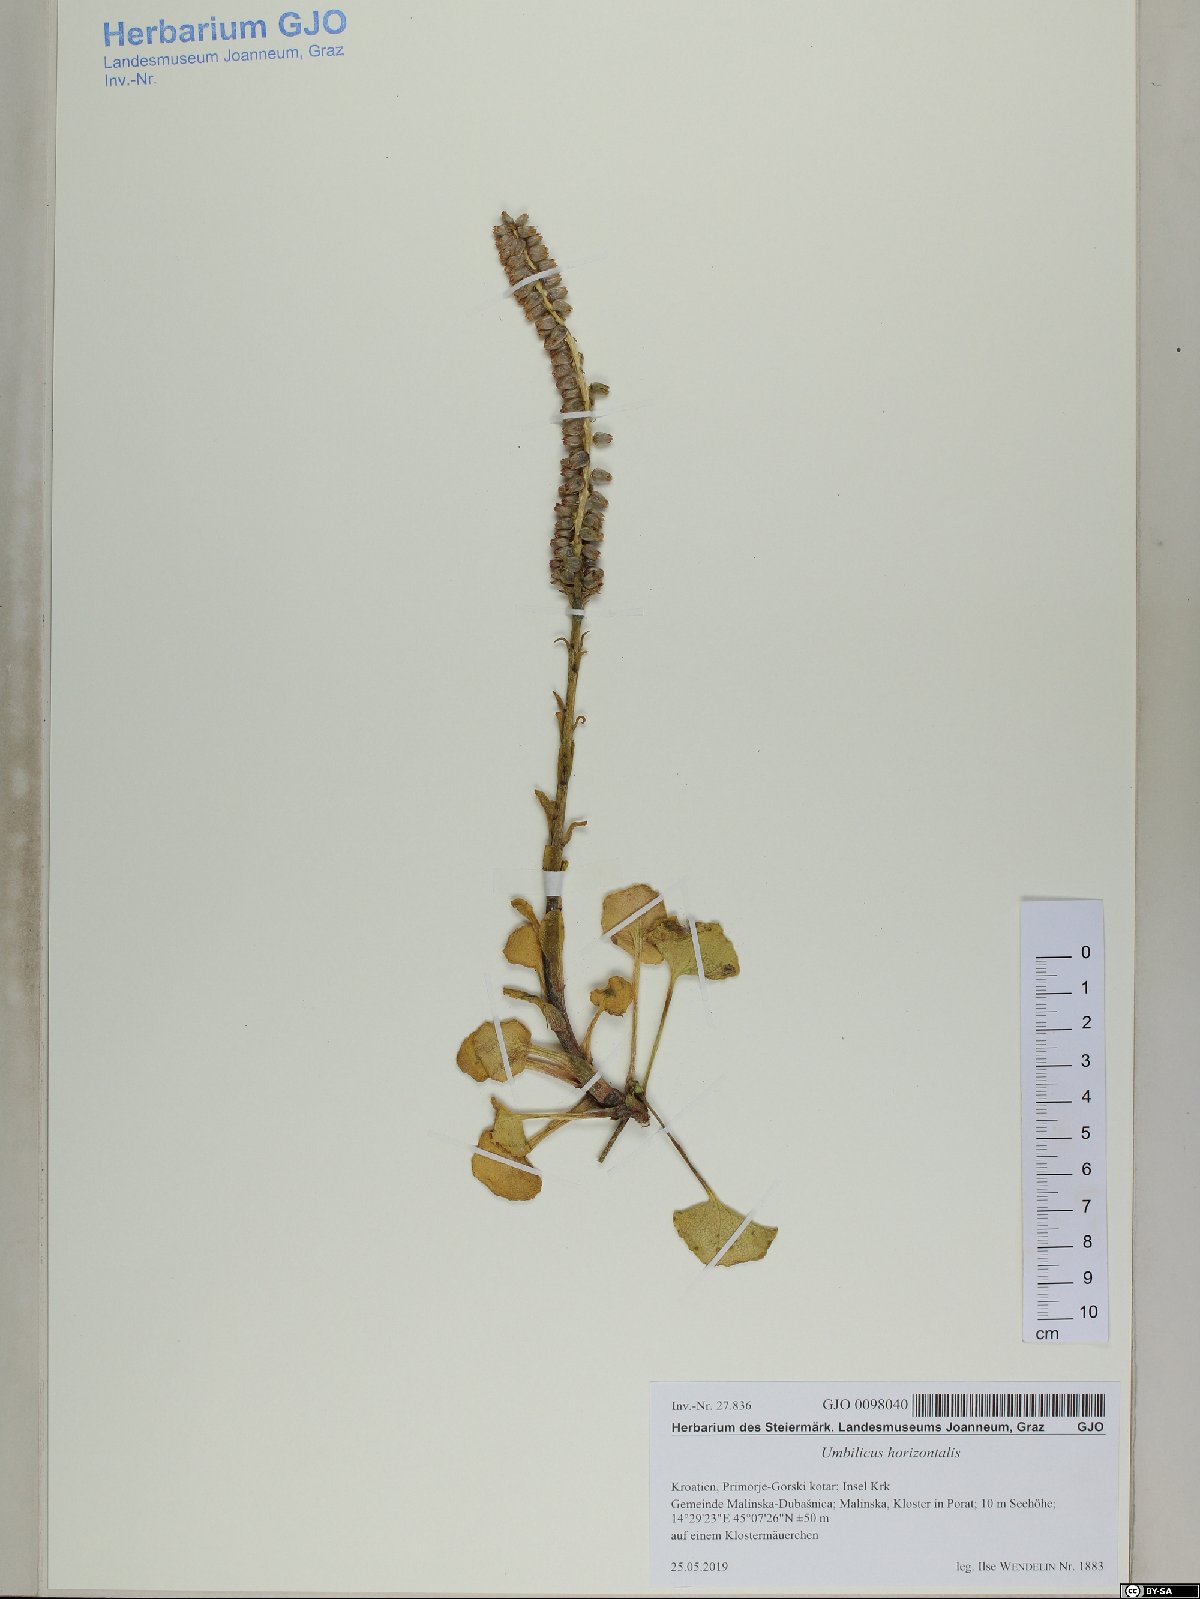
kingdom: Plantae
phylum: Tracheophyta
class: Magnoliopsida
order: Saxifragales
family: Crassulaceae
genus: Umbilicus
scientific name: Umbilicus horizontalis
